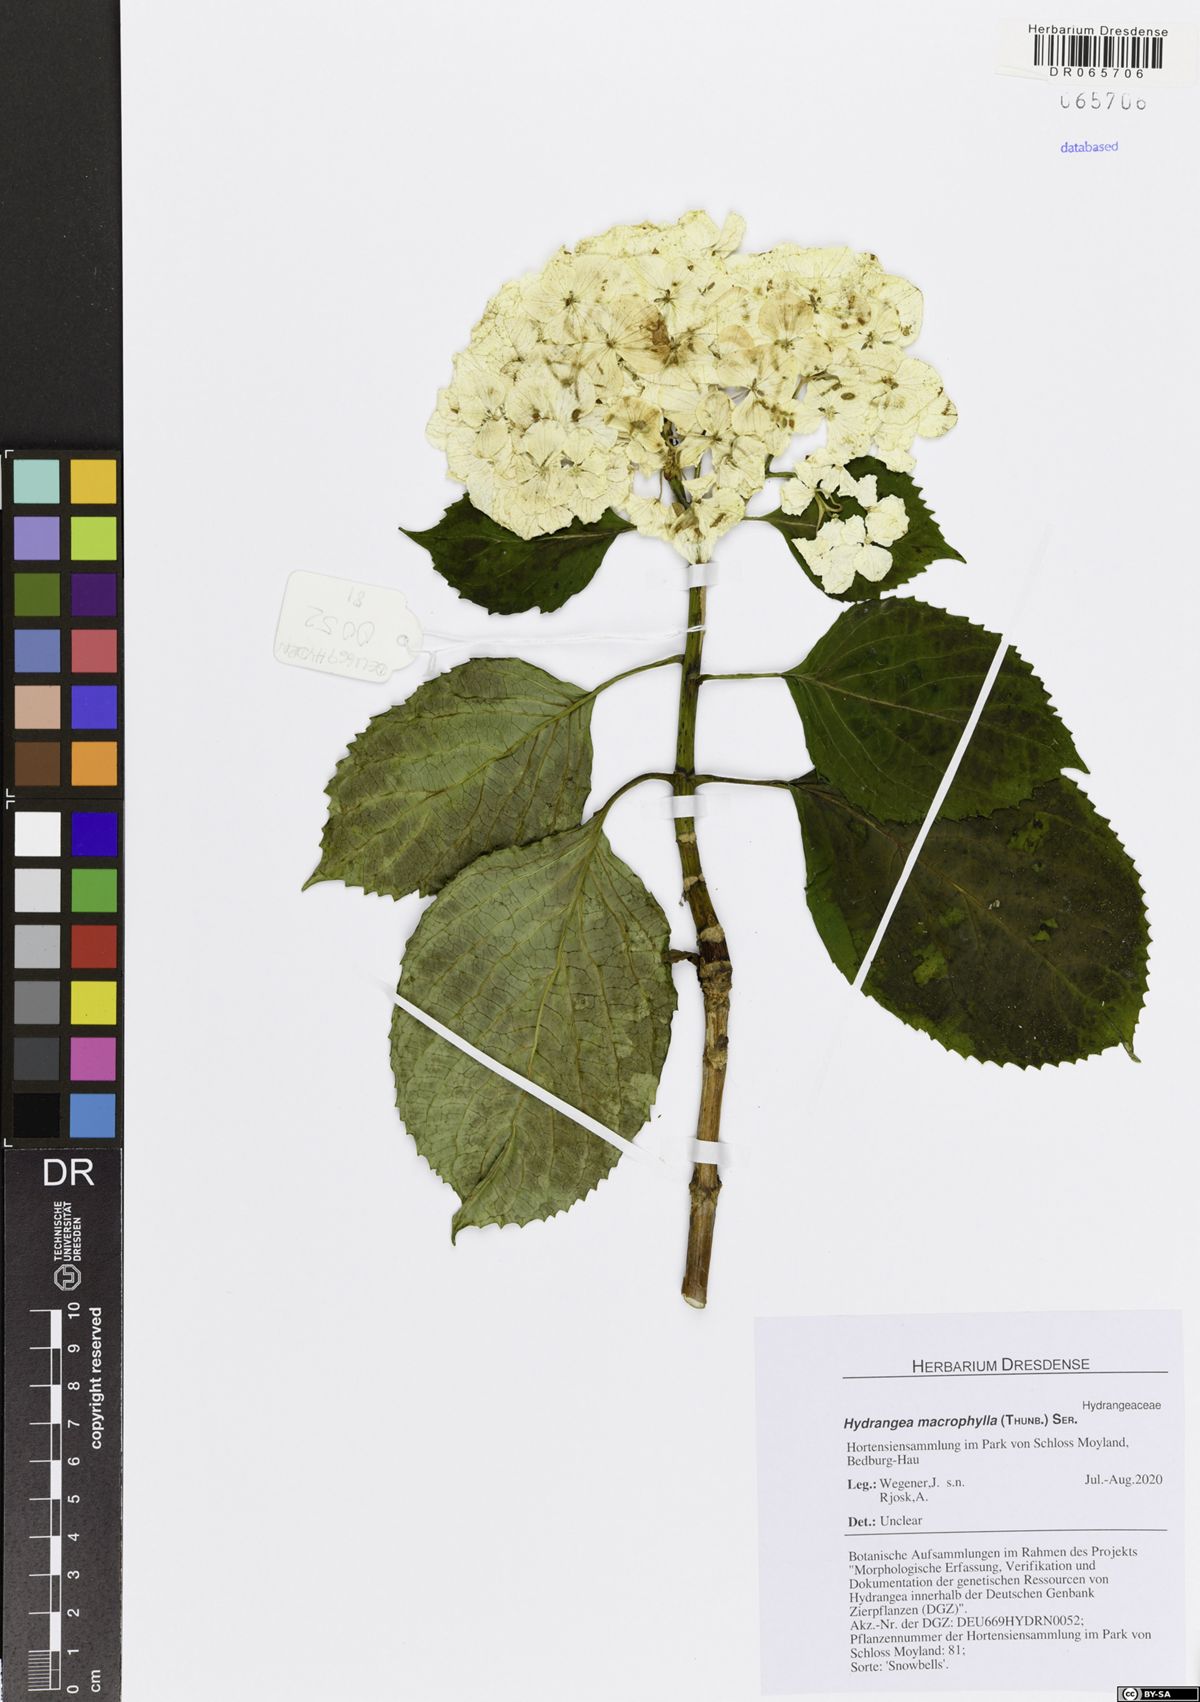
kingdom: Plantae
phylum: Tracheophyta
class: Magnoliopsida
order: Cornales
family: Hydrangeaceae
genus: Hydrangea
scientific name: Hydrangea macrophylla
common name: Hydrangea
